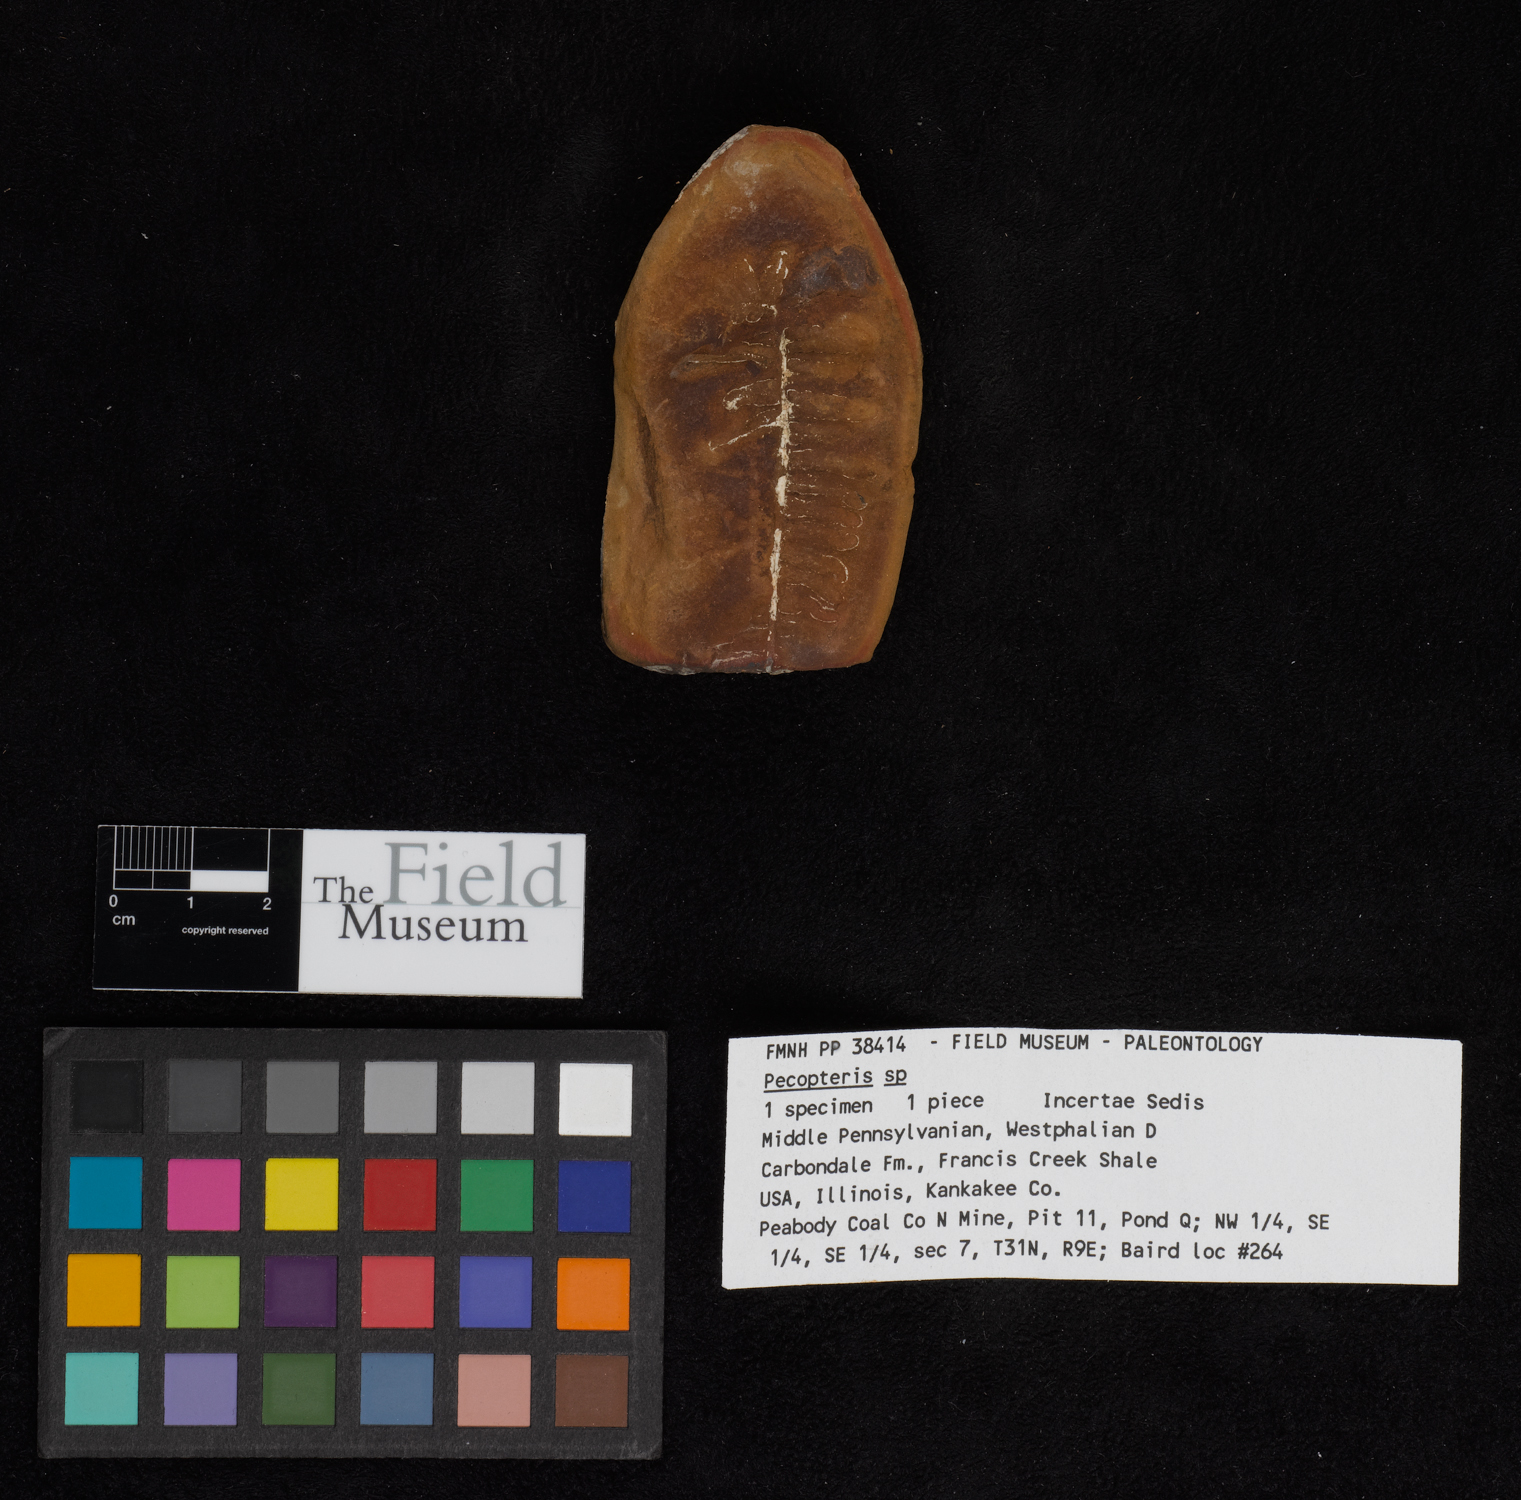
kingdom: Plantae
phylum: Tracheophyta
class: Polypodiopsida
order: Marattiales
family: Asterothecaceae
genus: Pecopteris
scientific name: Pecopteris
